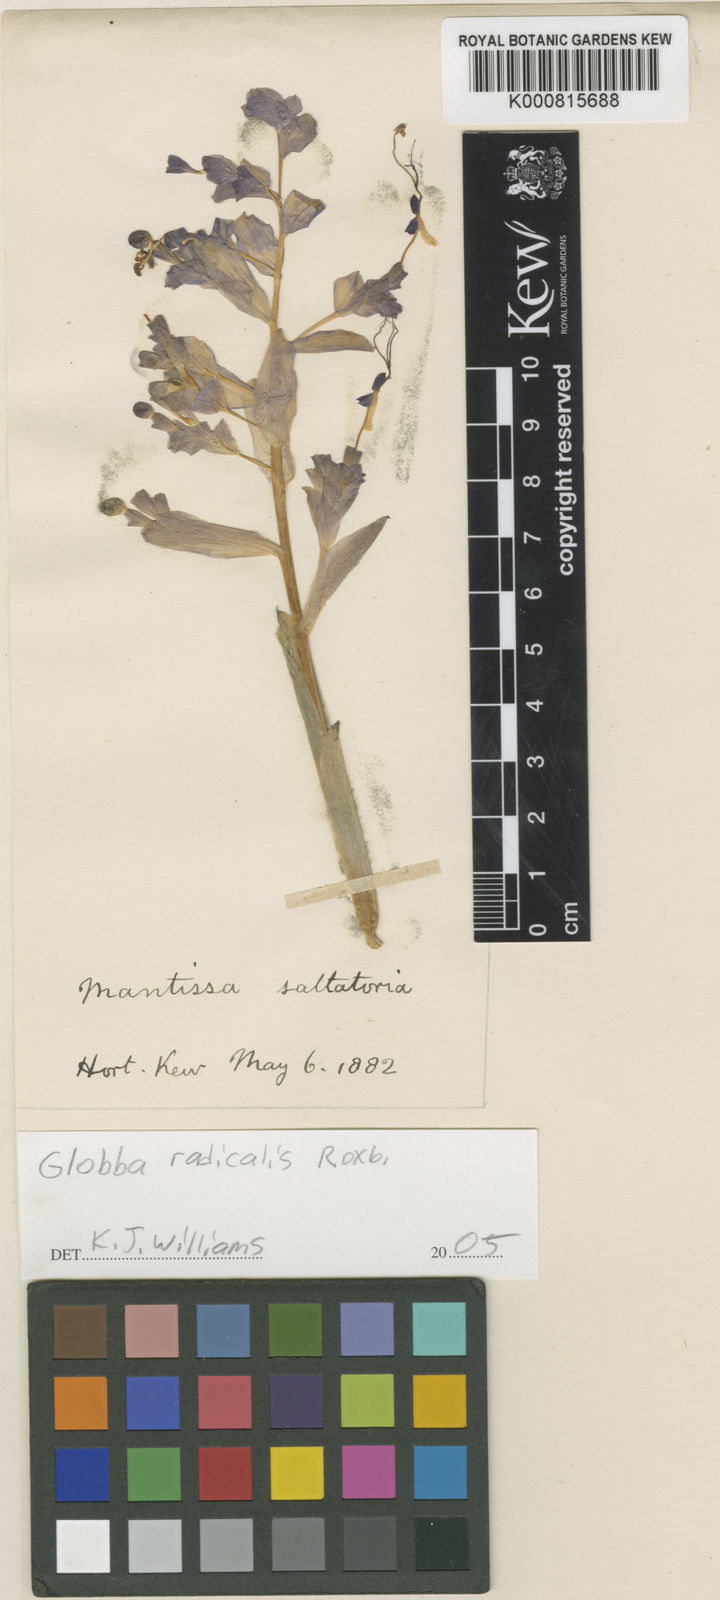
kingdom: Plantae
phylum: Tracheophyta
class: Liliopsida
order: Zingiberales
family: Zingiberaceae
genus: Globba
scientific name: Globba radicalis
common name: Dancing girl
